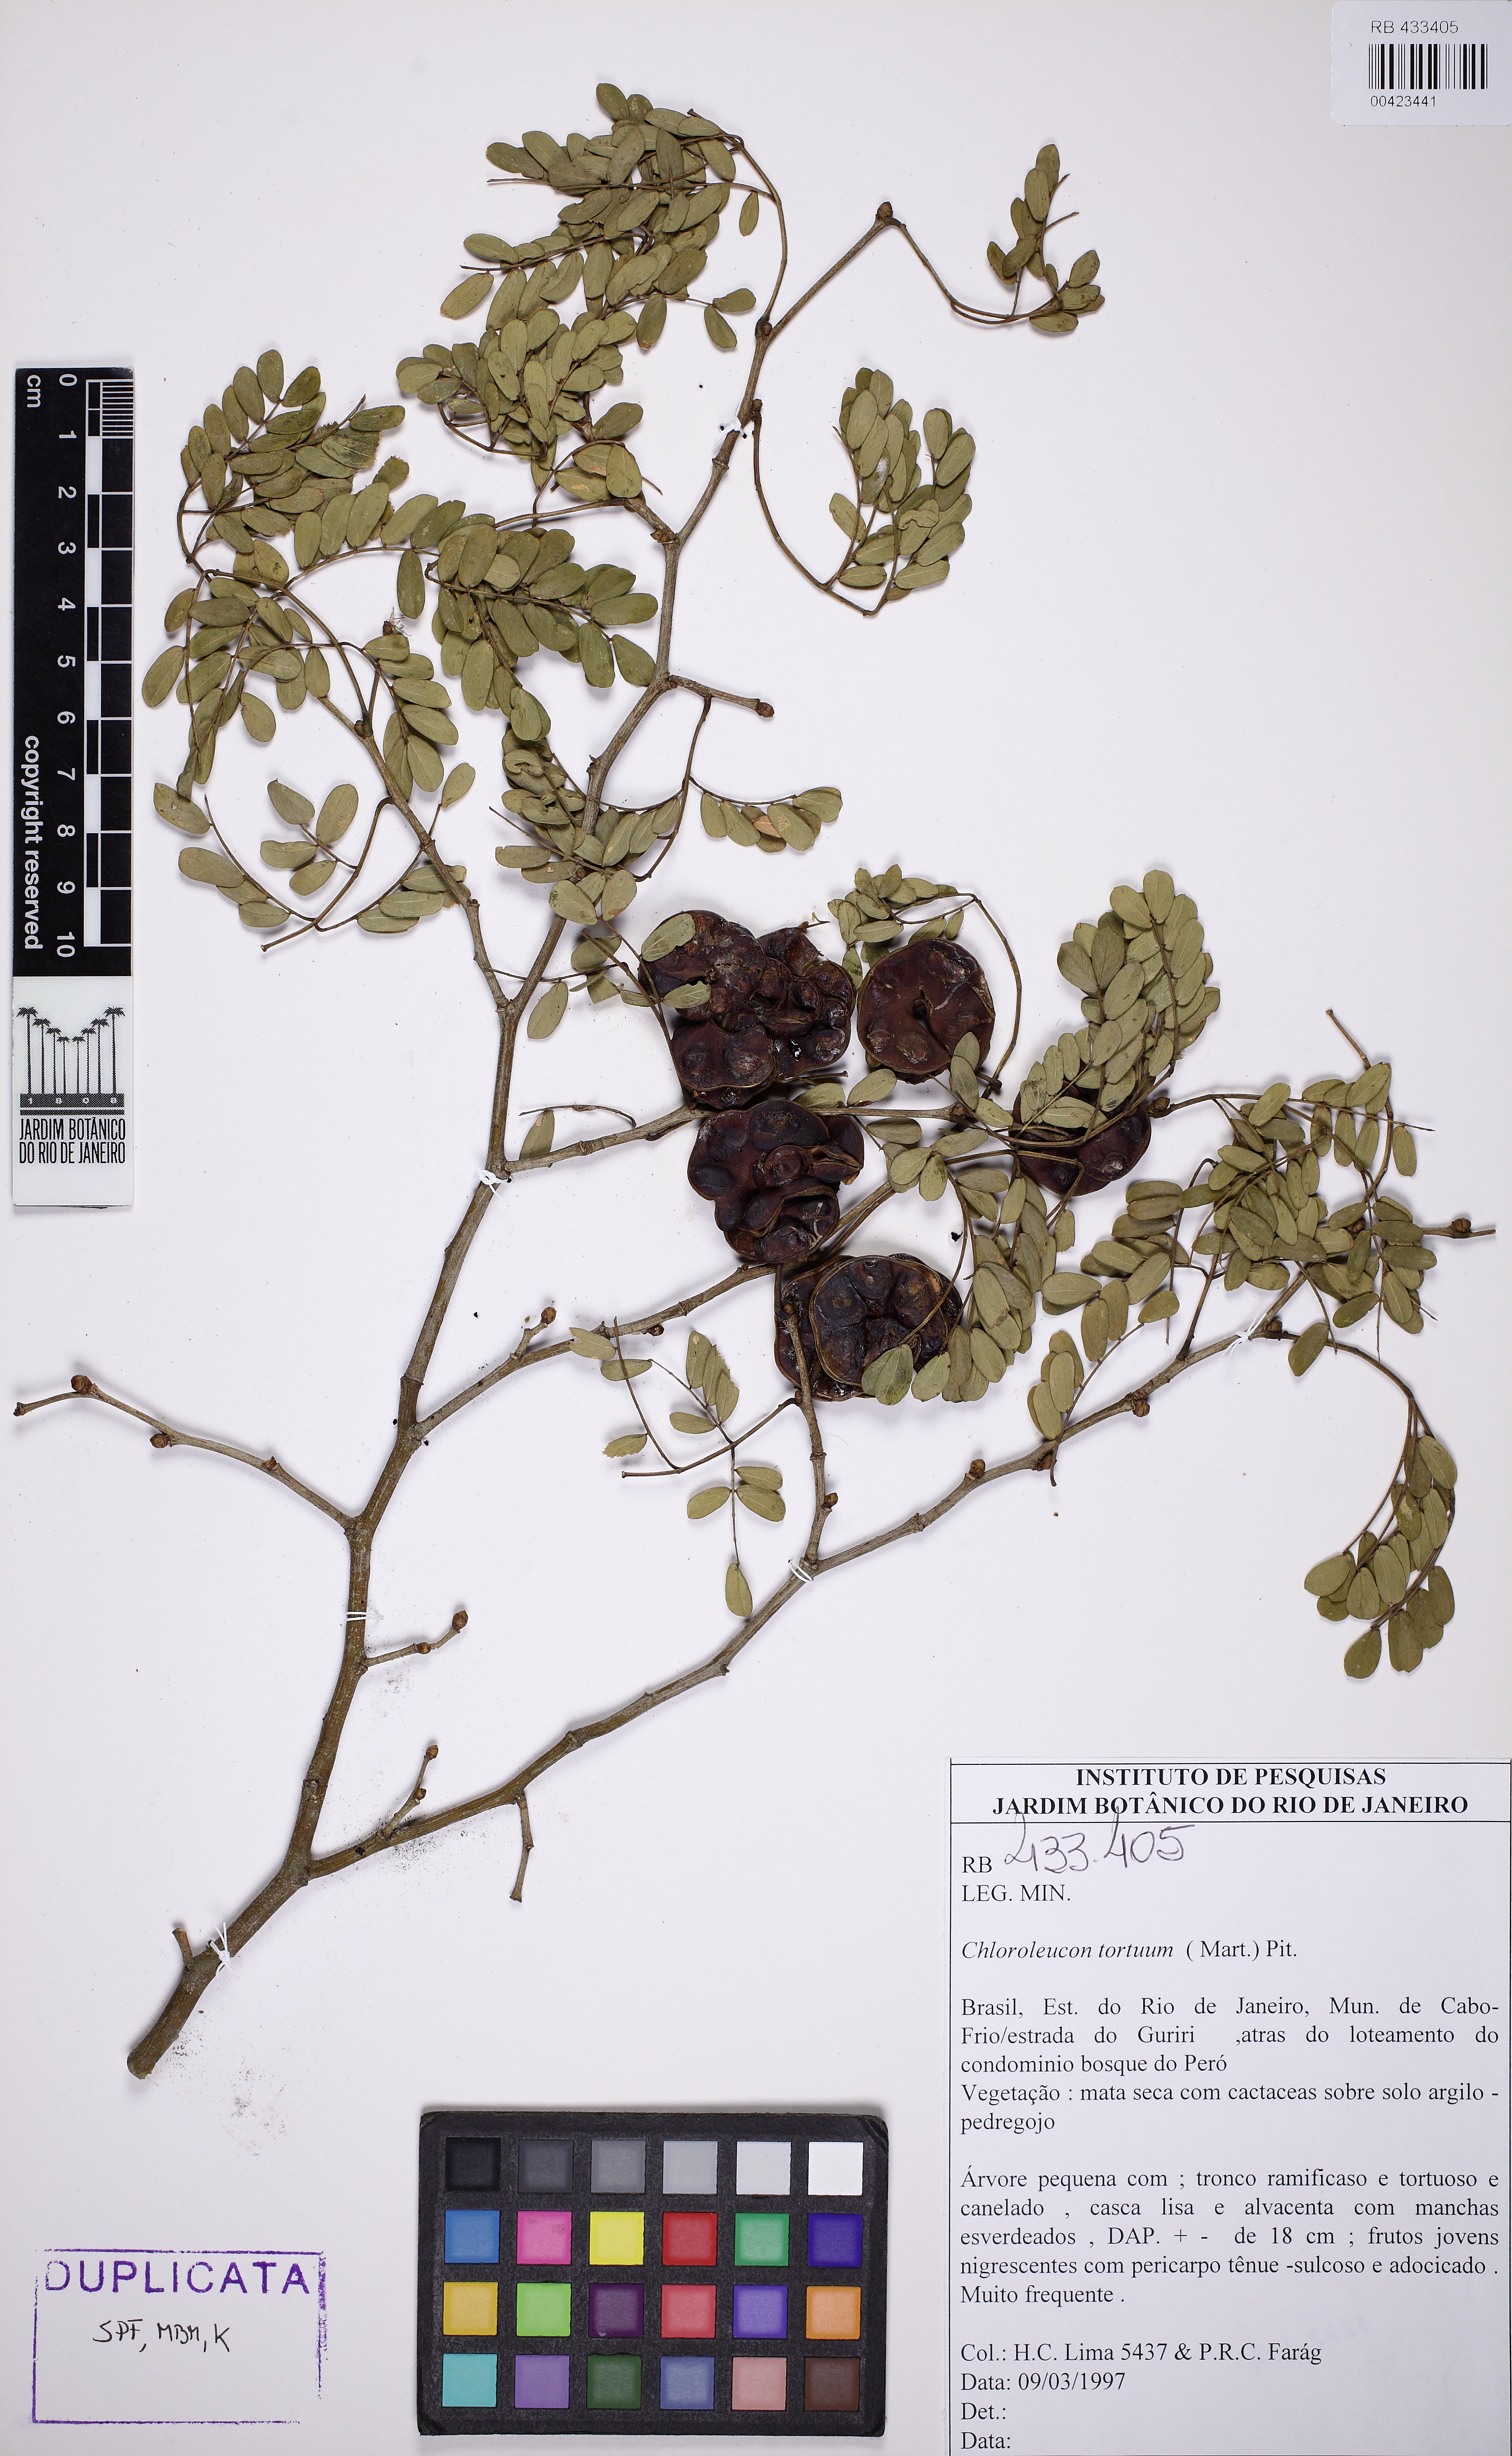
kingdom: Plantae
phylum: Tracheophyta
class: Magnoliopsida
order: Fabales
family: Fabaceae
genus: Chloroleucon
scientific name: Chloroleucon tortum
